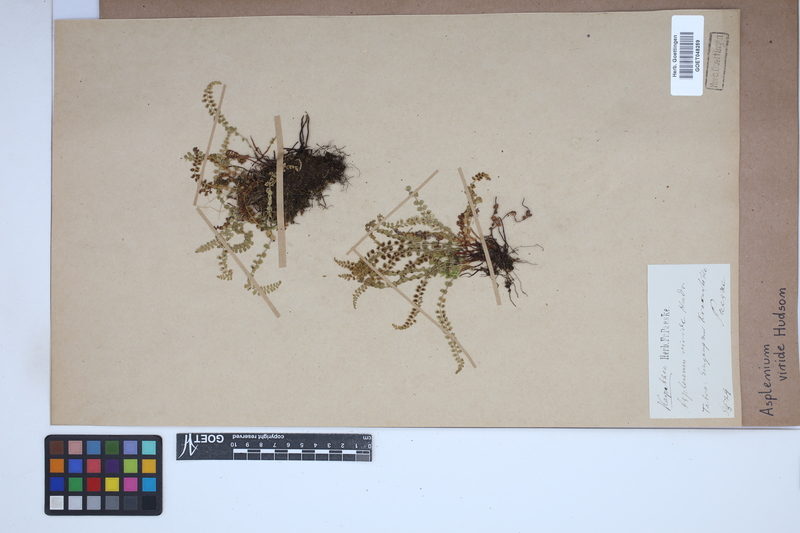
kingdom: Plantae
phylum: Tracheophyta
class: Polypodiopsida
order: Polypodiales
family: Aspleniaceae
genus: Asplenium
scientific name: Asplenium viride
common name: Green spleenwort
